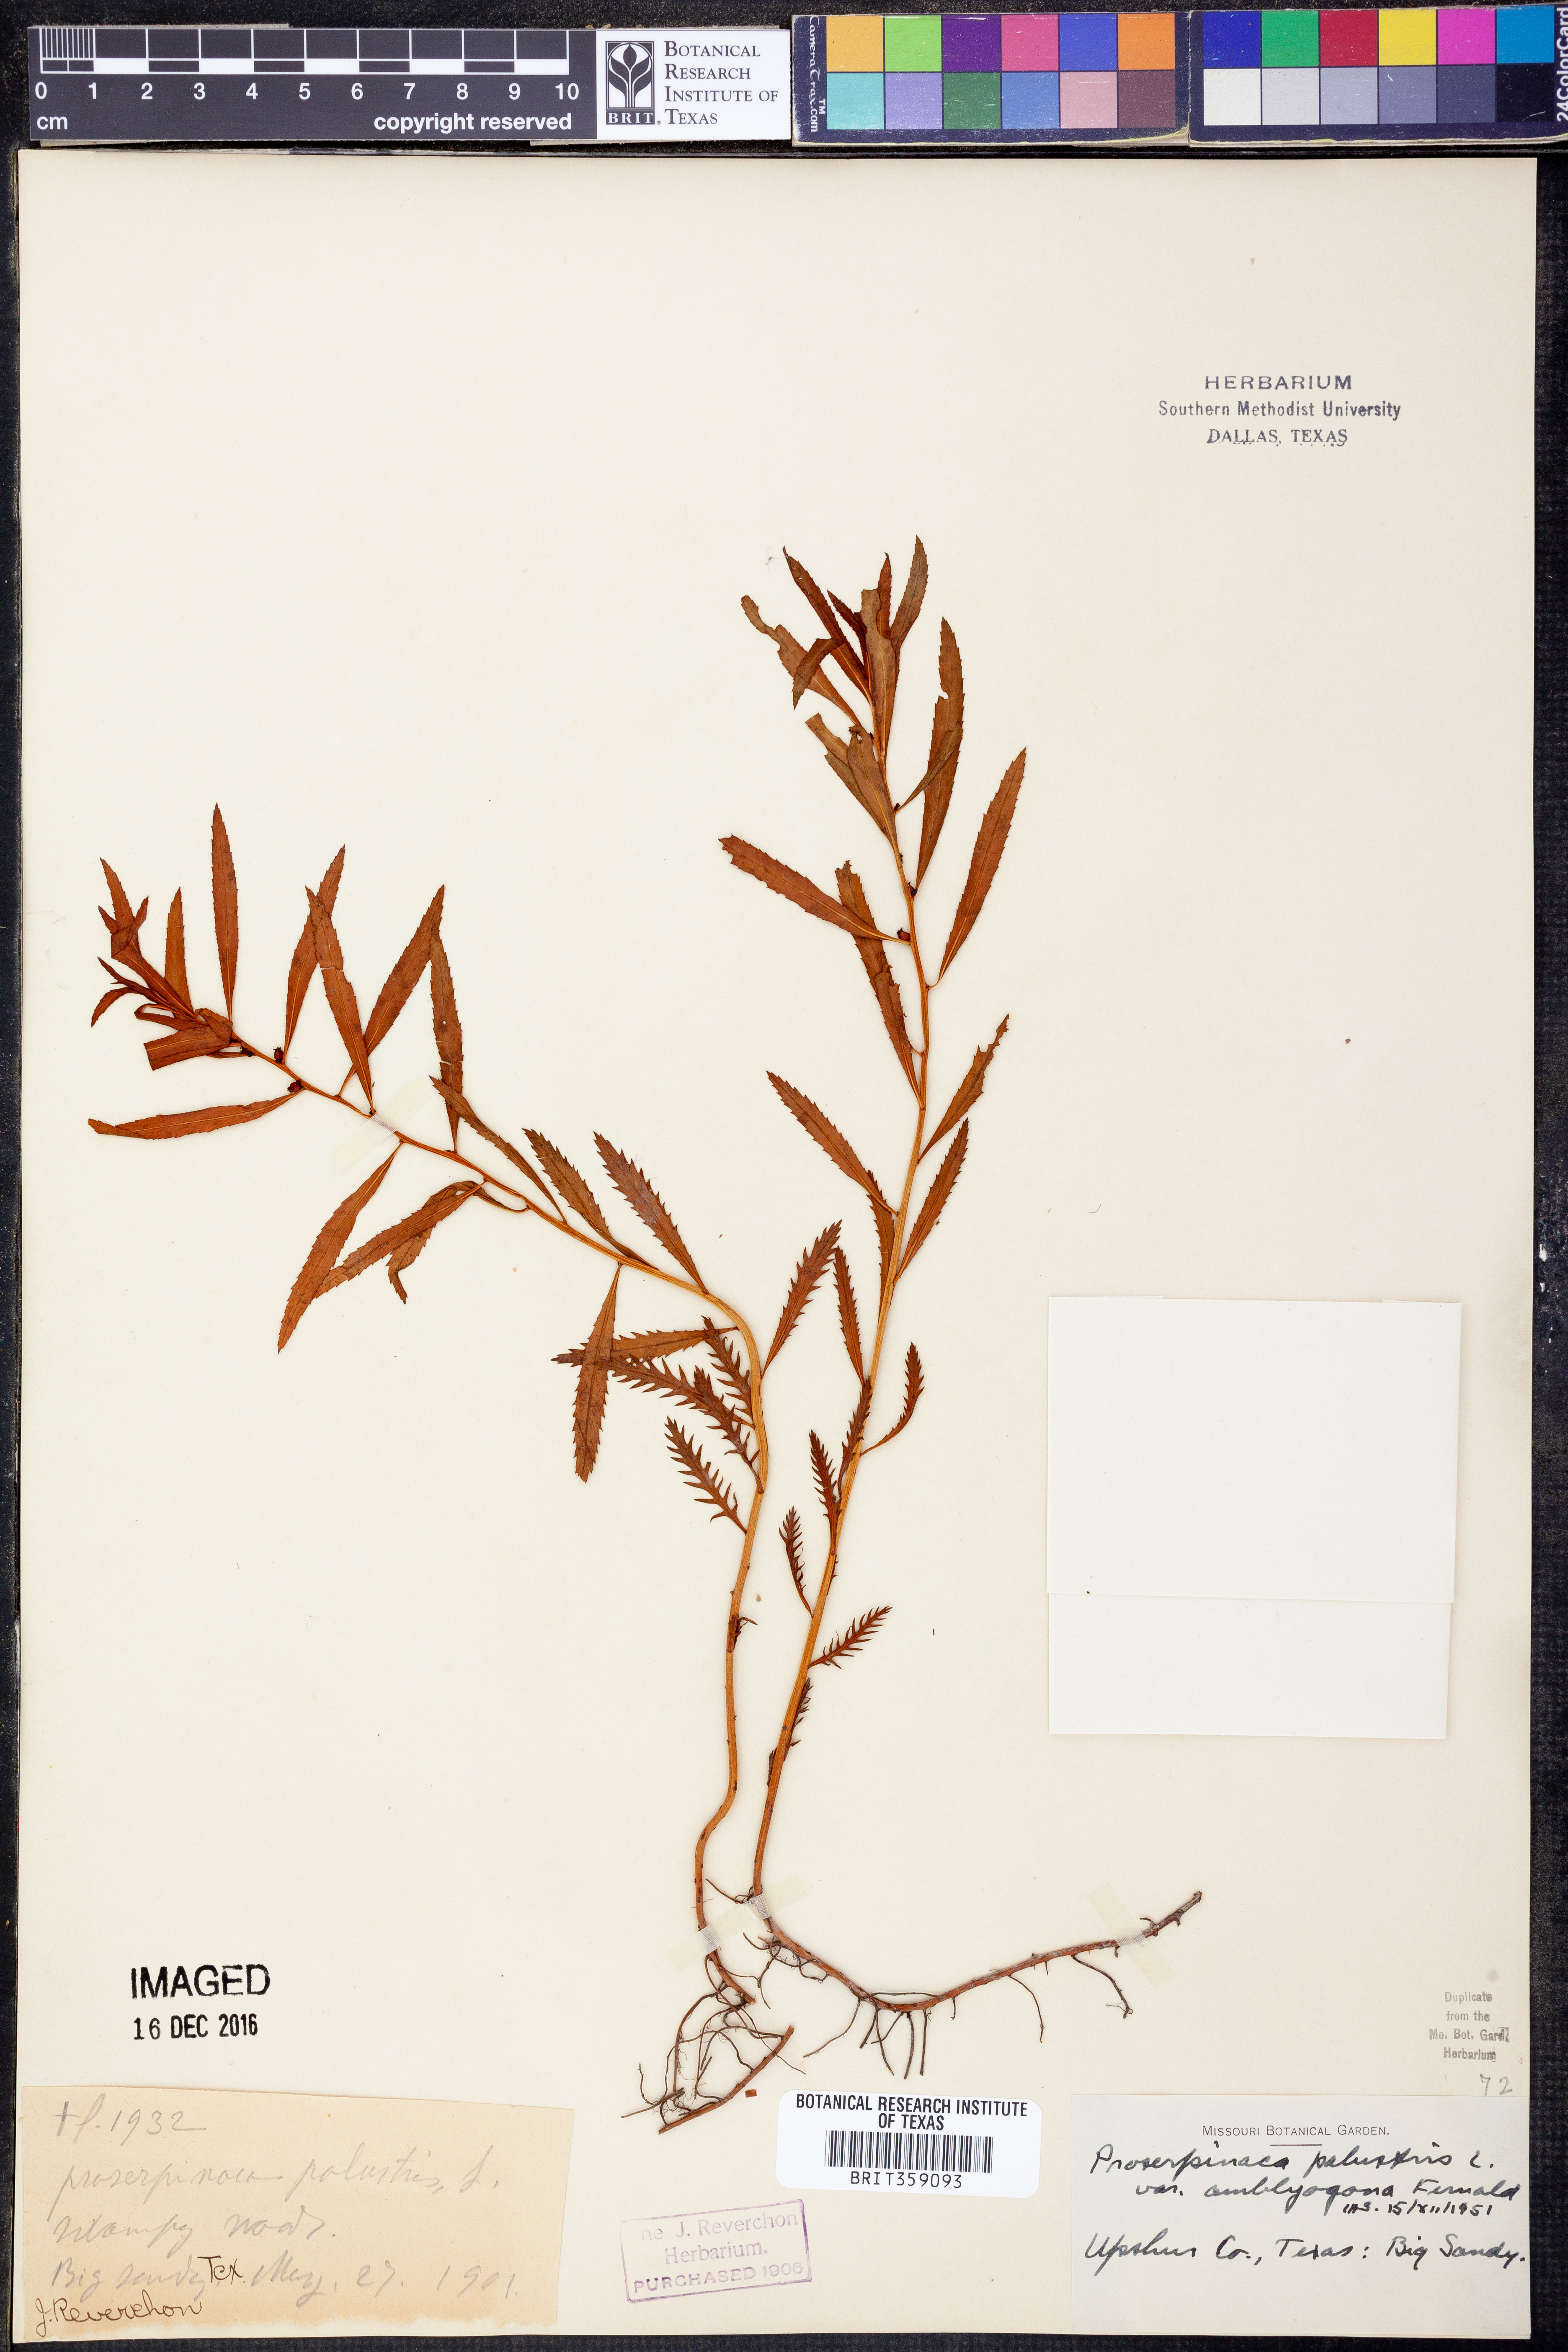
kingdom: Plantae
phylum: Tracheophyta
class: Magnoliopsida
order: Saxifragales
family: Haloragaceae
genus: Proserpinaca
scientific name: Proserpinaca palustris
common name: Marsh mermaidweed
